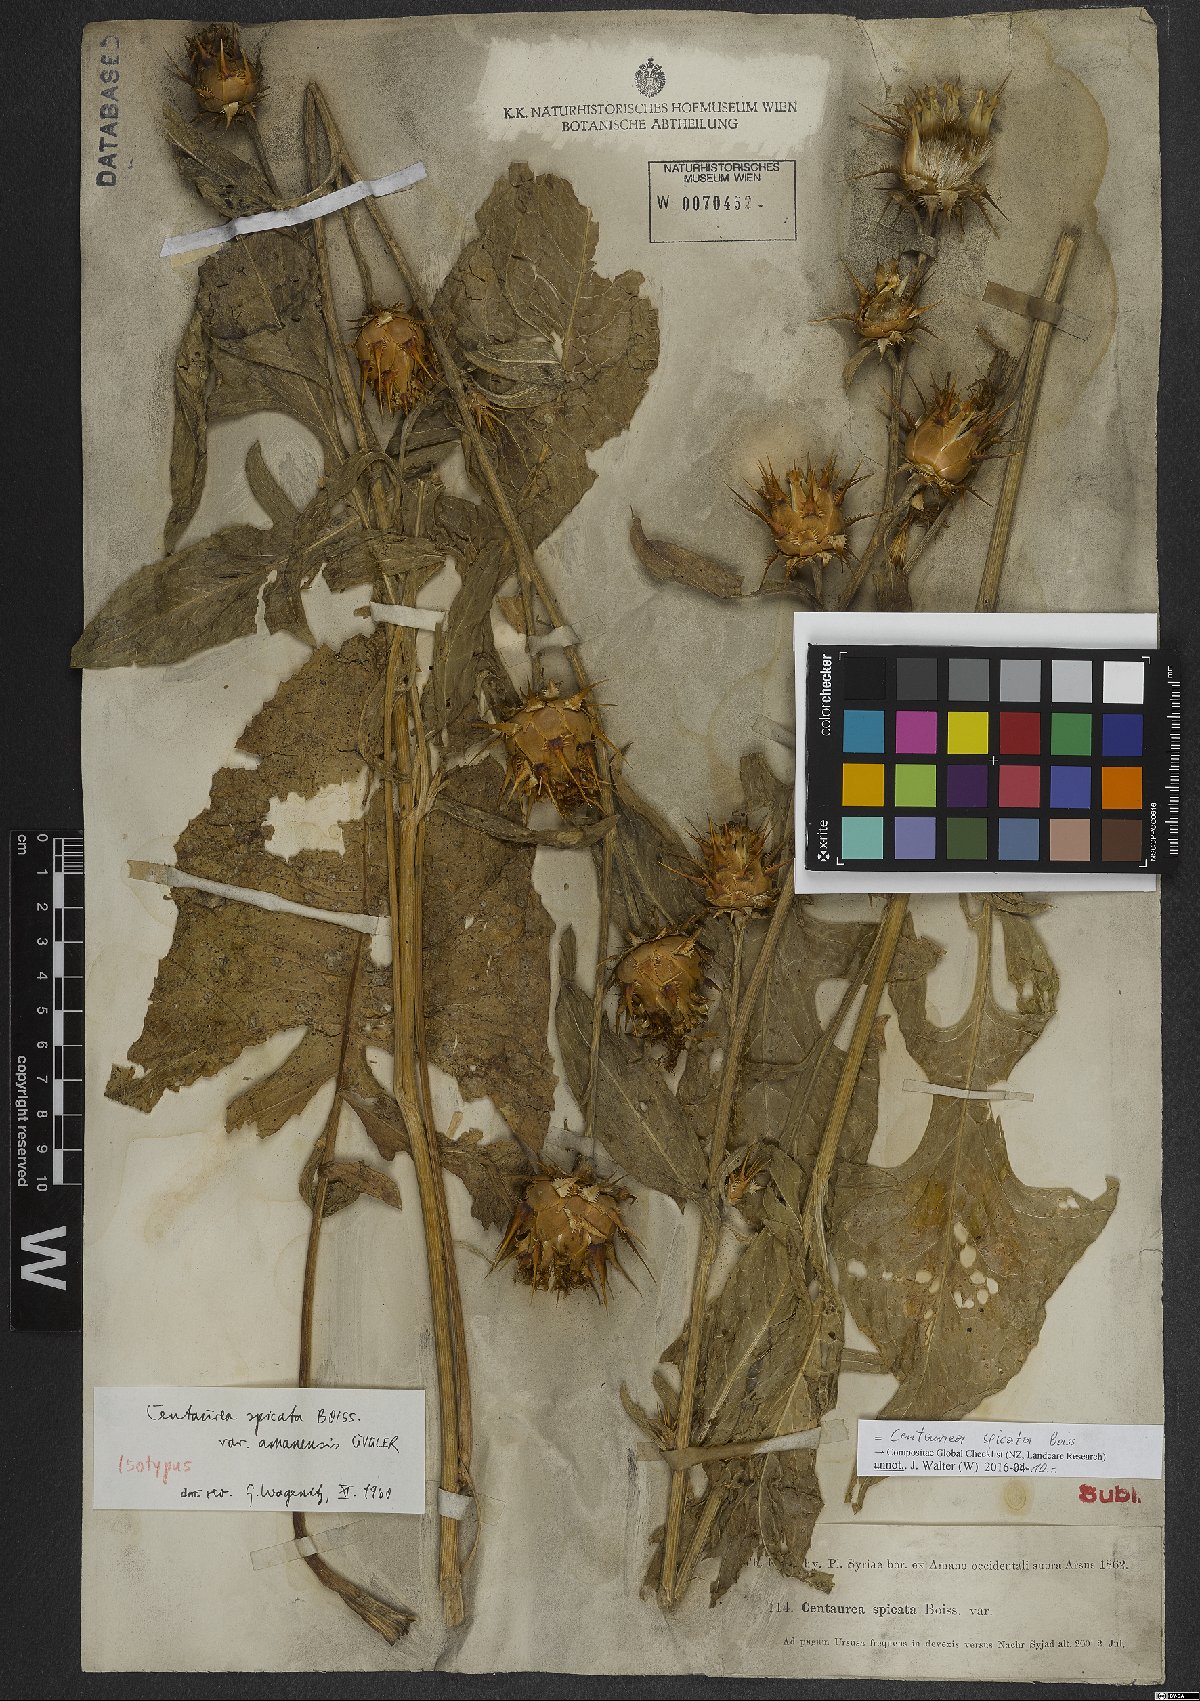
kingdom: Plantae
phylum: Tracheophyta
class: Magnoliopsida
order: Asterales
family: Asteraceae
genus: Centaurea
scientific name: Centaurea spicata
